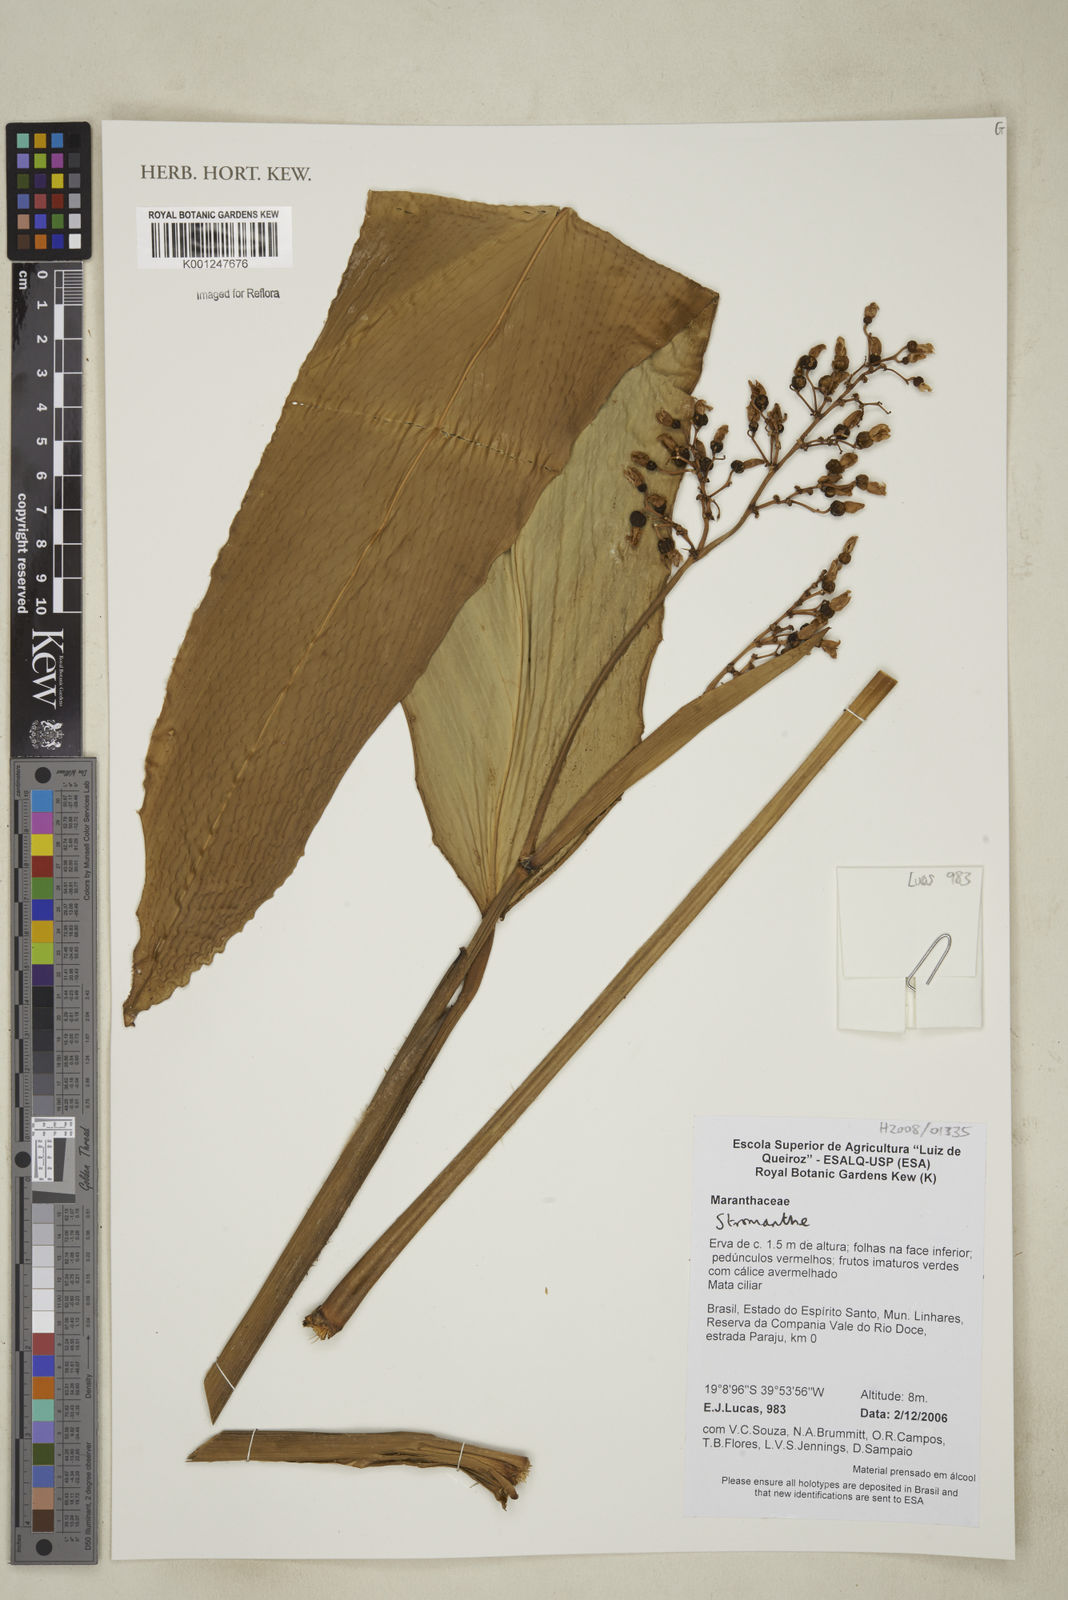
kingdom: Plantae
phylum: Tracheophyta
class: Liliopsida
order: Zingiberales
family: Marantaceae
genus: Stromanthe
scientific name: Stromanthe
